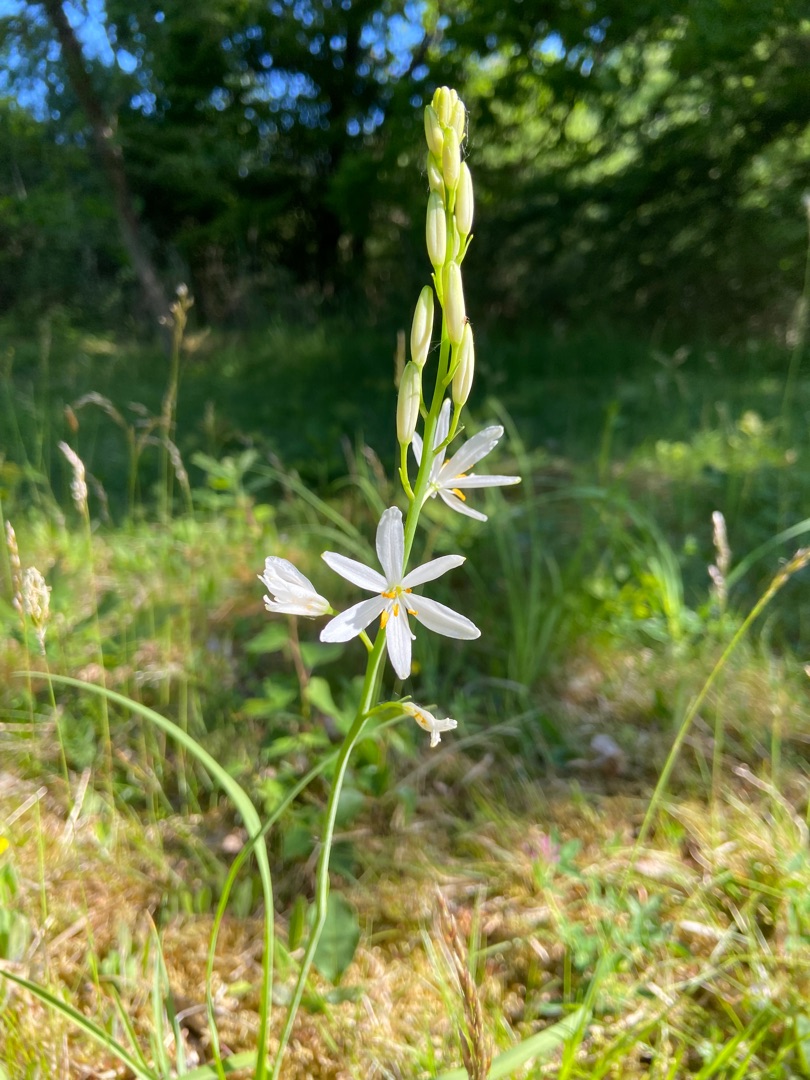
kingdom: Plantae
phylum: Tracheophyta
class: Liliopsida
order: Asparagales
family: Asparagaceae
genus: Anthericum
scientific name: Anthericum liliago
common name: Ugrenet edderkopurt
